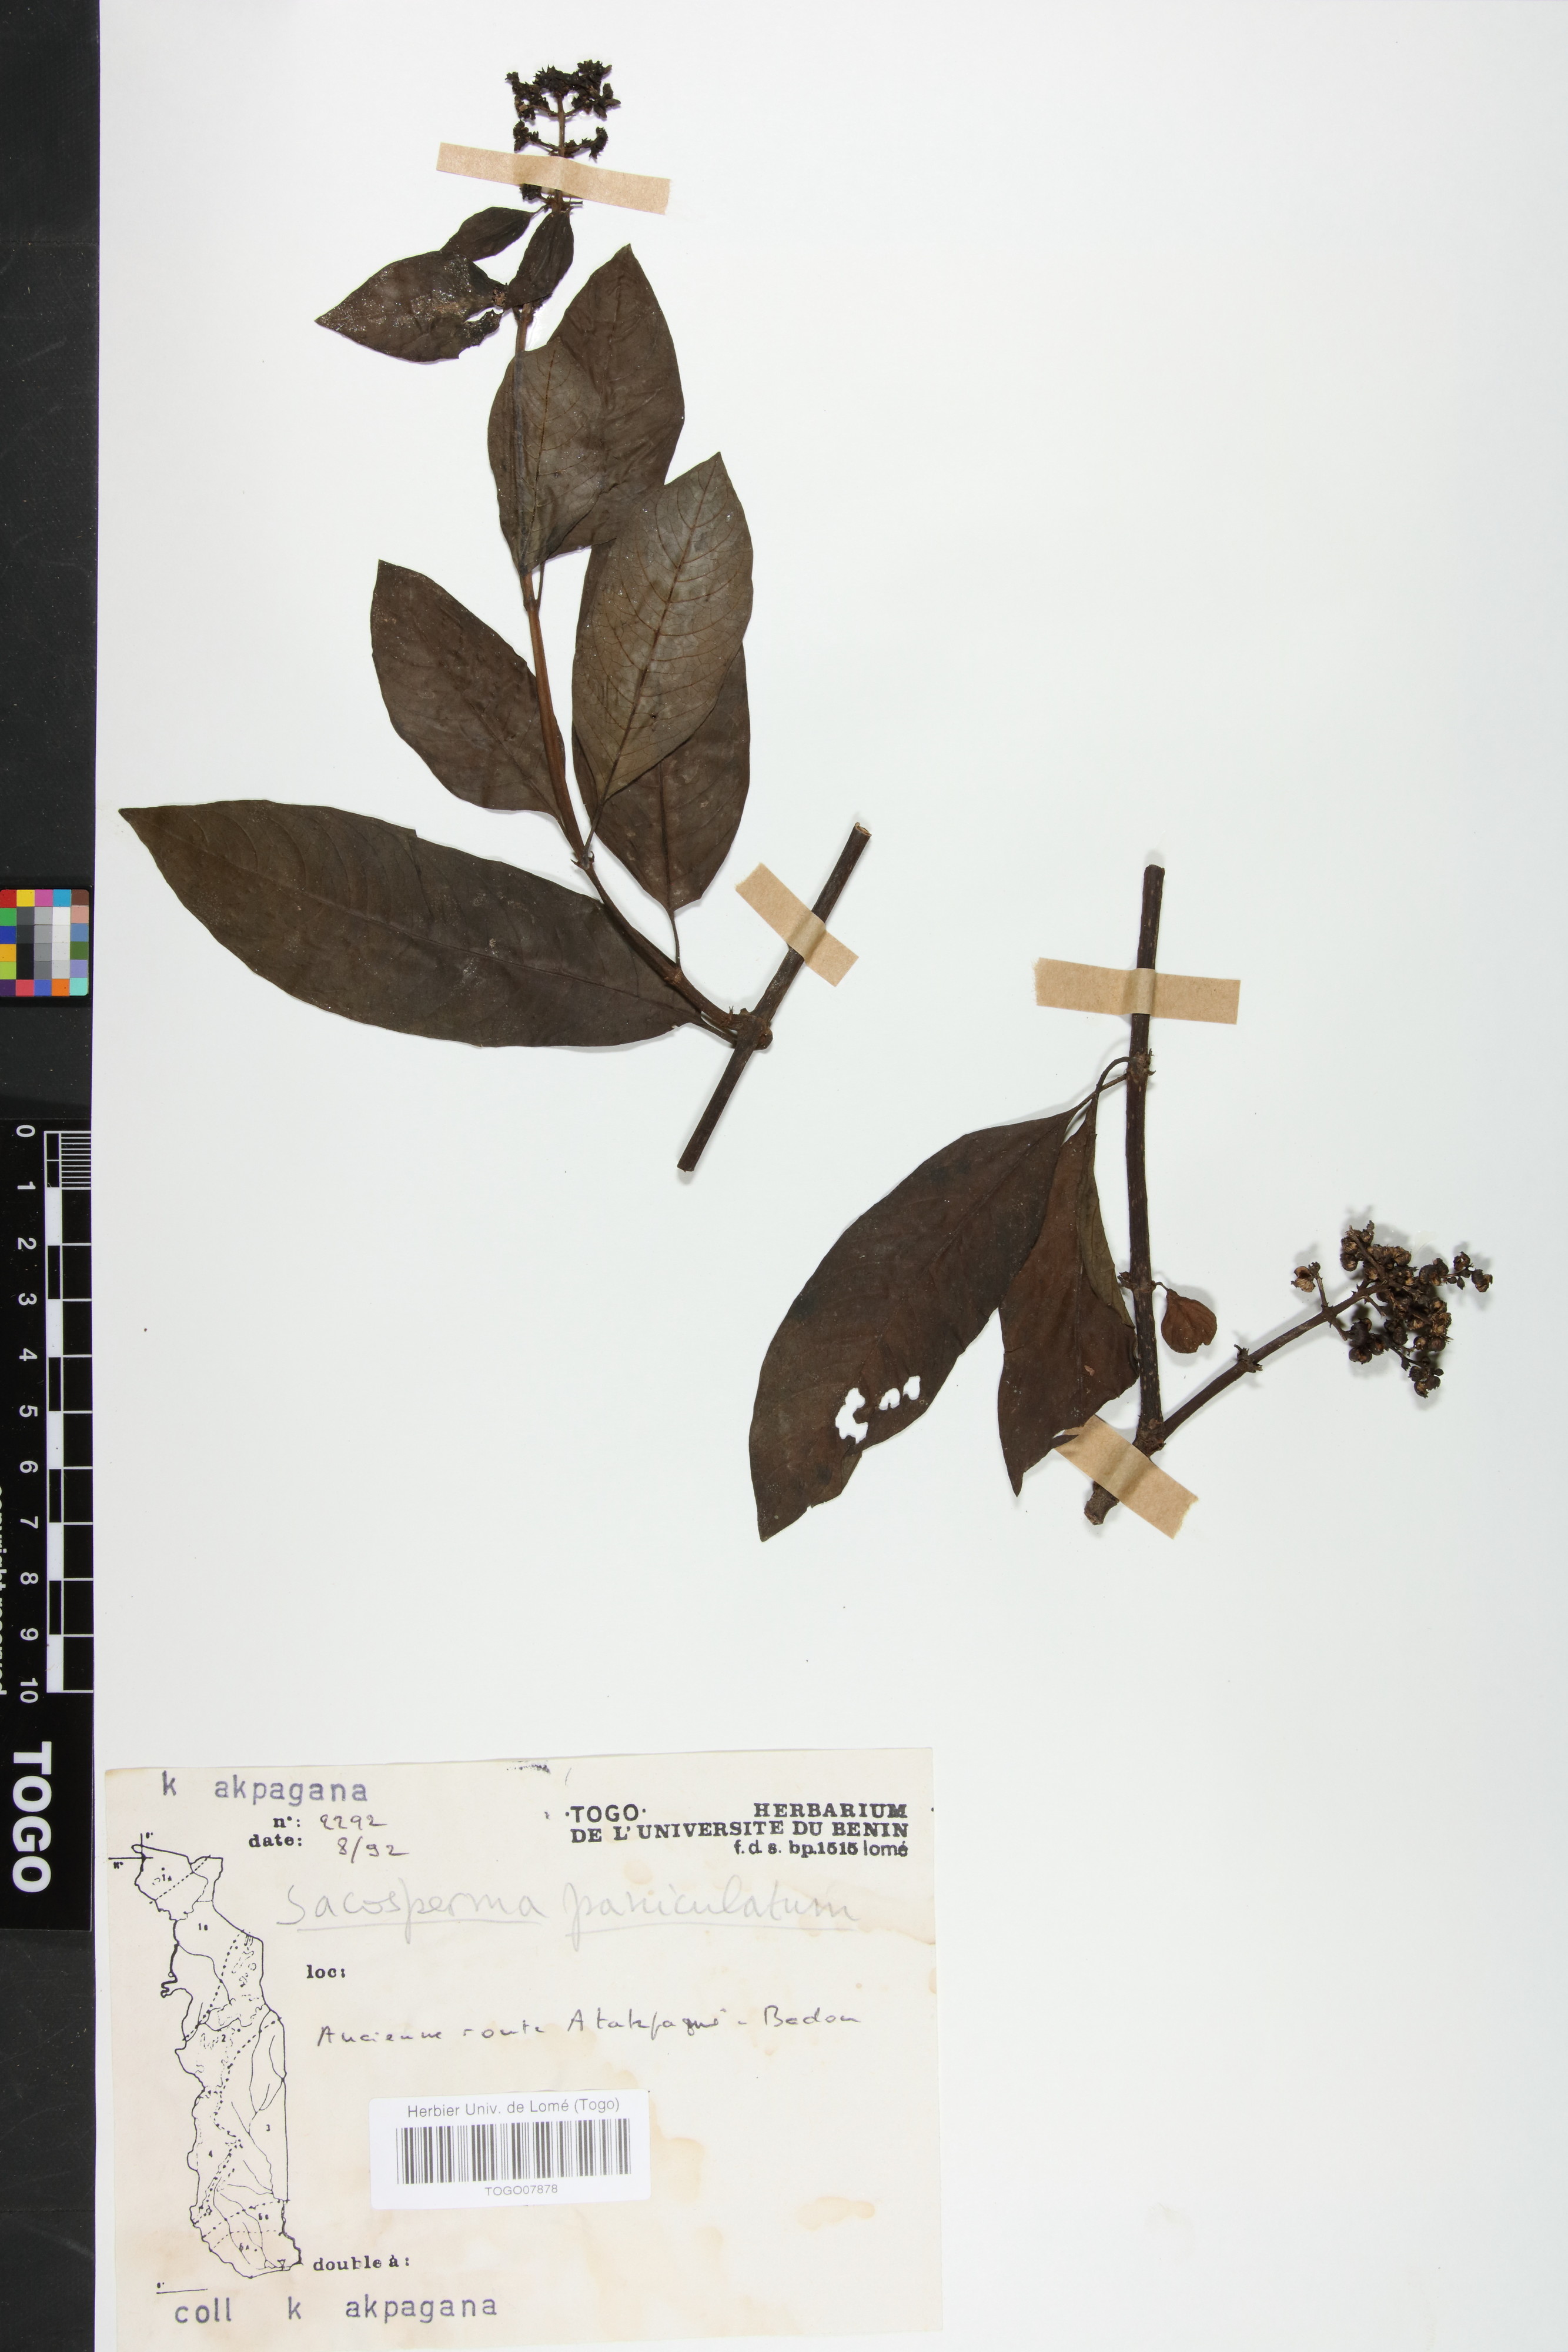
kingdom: Plantae
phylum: Tracheophyta
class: Magnoliopsida
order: Gentianales
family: Rubiaceae
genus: Sacosperma
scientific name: Sacosperma paniculatum
